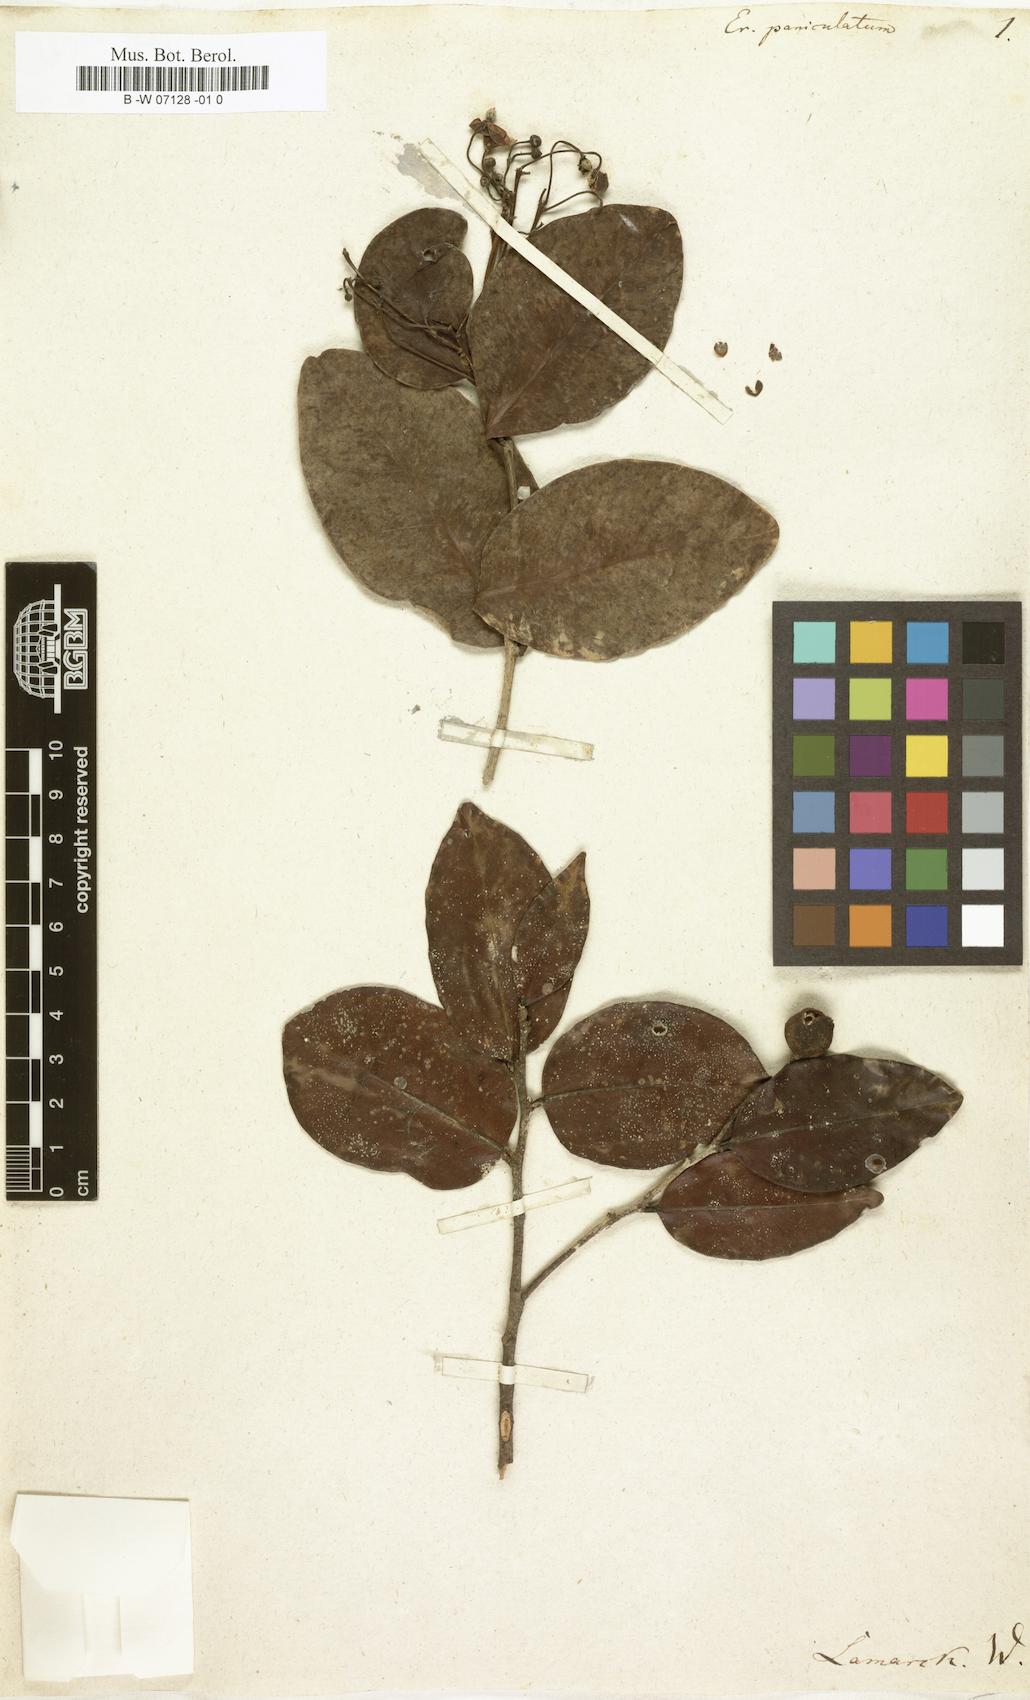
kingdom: Plantae
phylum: Tracheophyta
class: Magnoliopsida
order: Malpighiales
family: Achariaceae
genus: Erythrospermum
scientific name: Erythrospermum monticola
